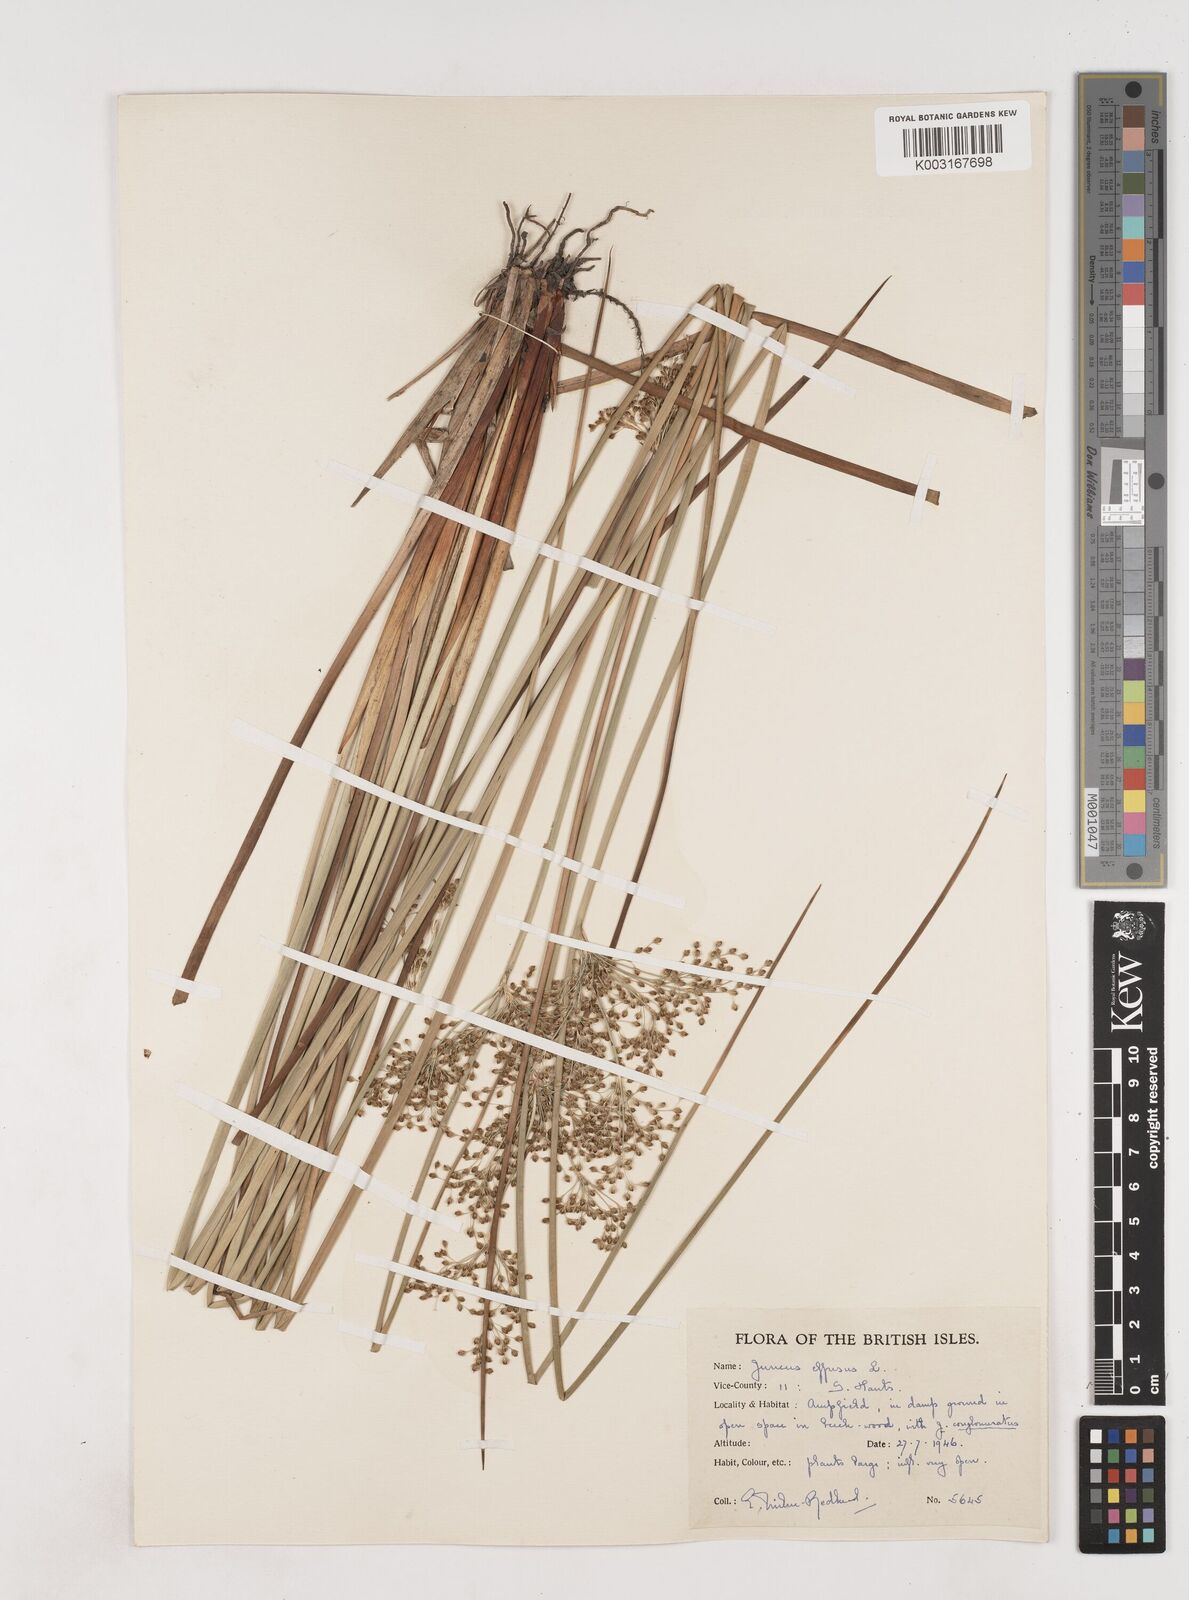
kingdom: Plantae
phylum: Tracheophyta
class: Liliopsida
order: Poales
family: Juncaceae
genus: Juncus
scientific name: Juncus effusus
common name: Soft rush
